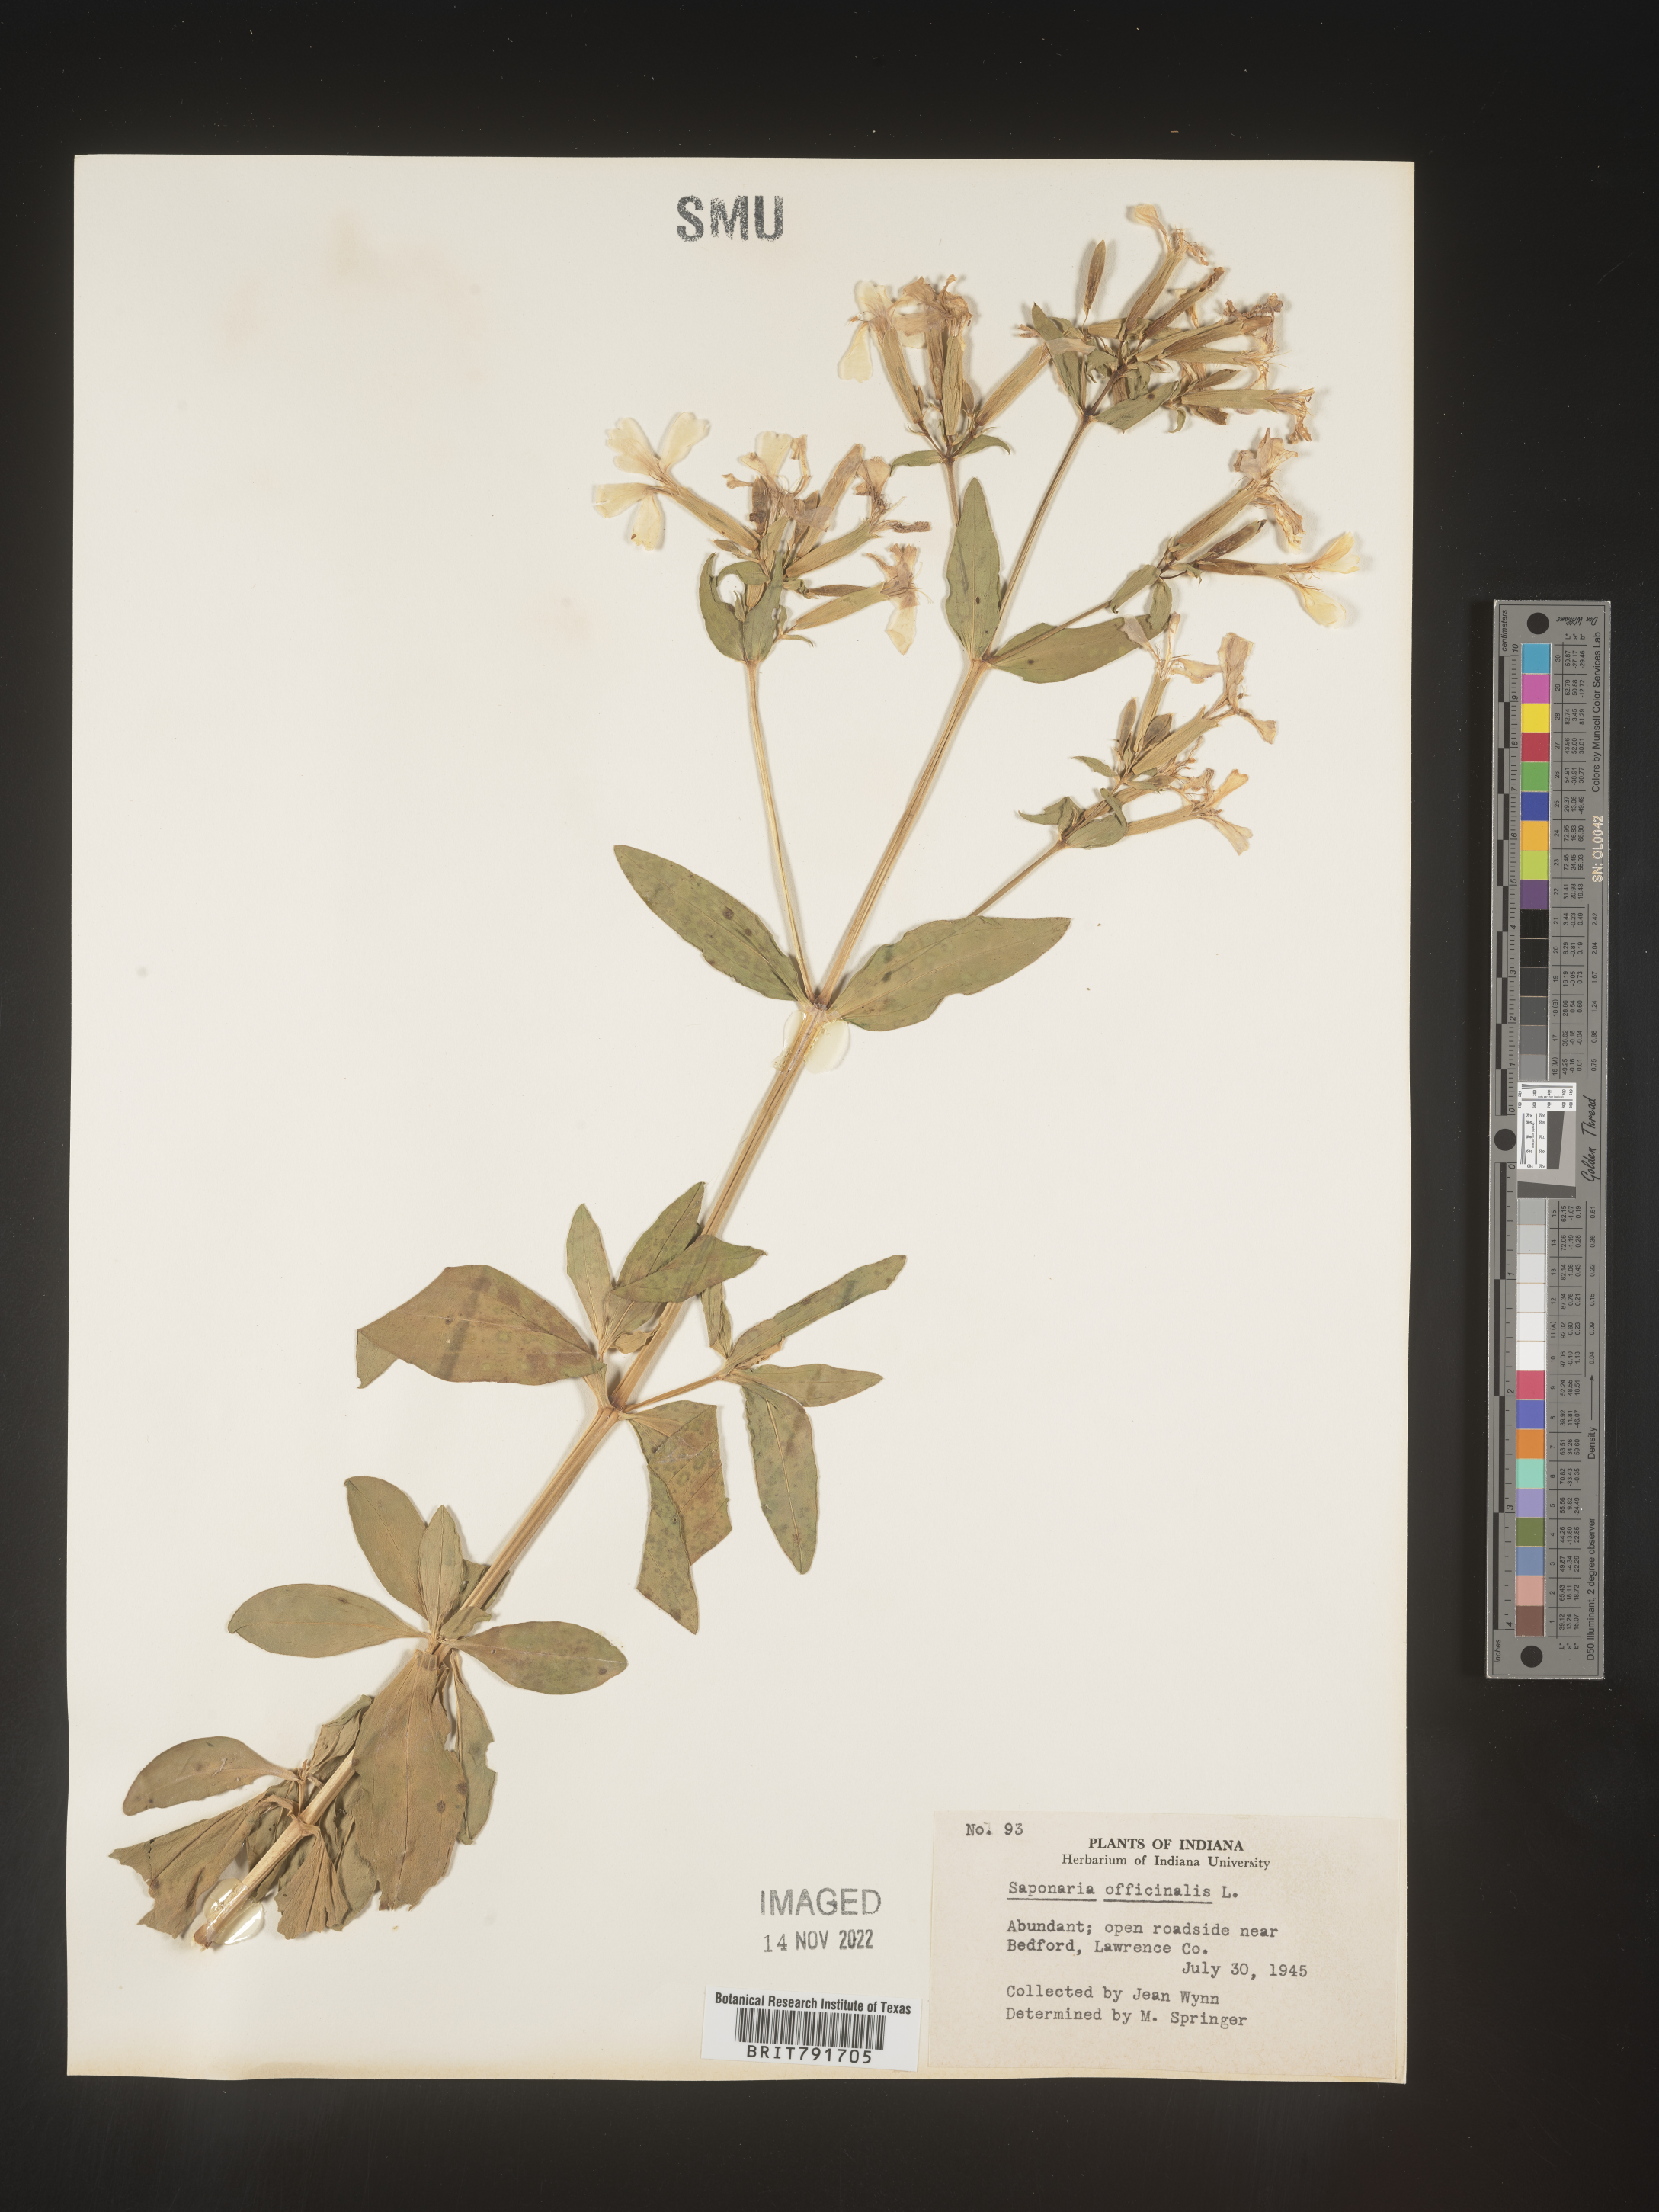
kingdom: Plantae
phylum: Tracheophyta
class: Magnoliopsida
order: Caryophyllales
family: Caryophyllaceae
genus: Saponaria
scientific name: Saponaria officinalis
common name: Soapwort
